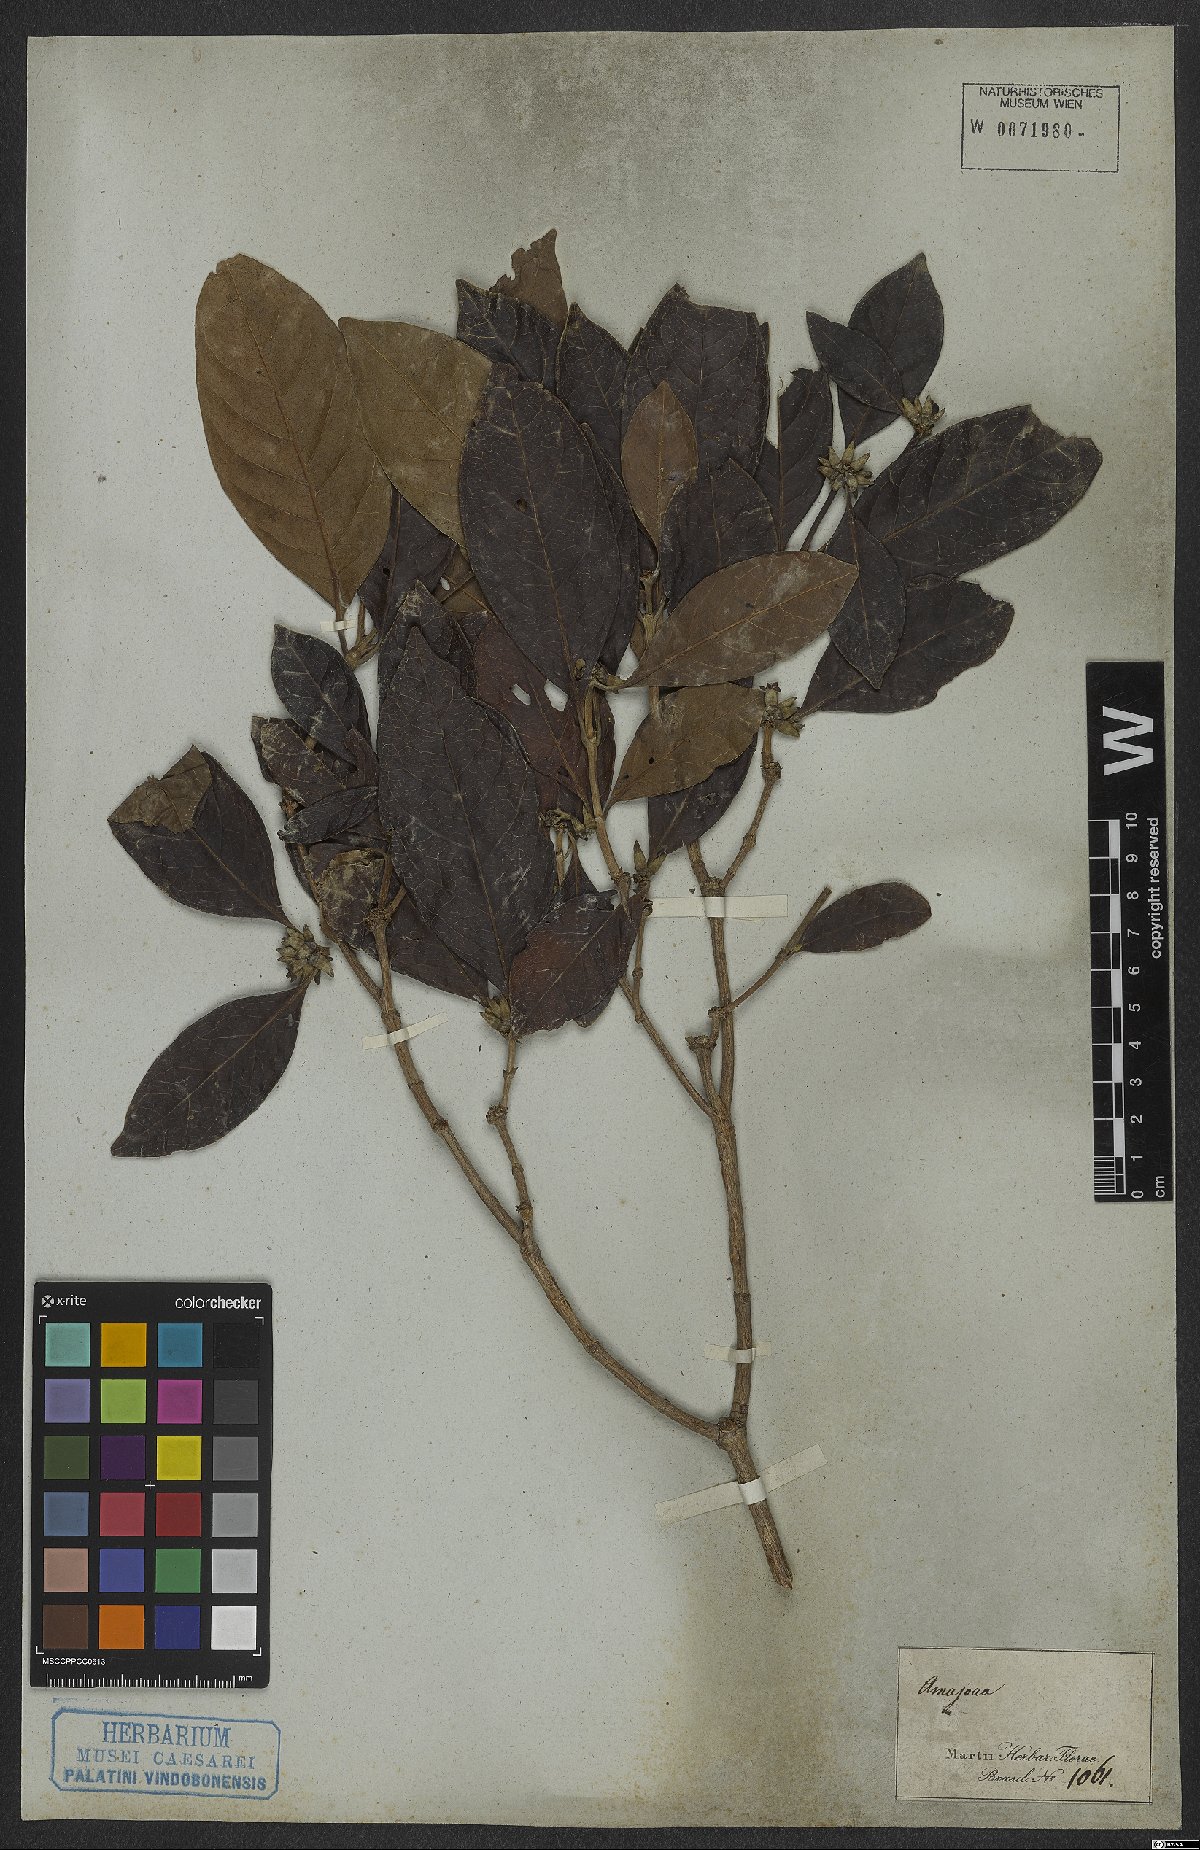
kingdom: Plantae
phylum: Tracheophyta
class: Magnoliopsida
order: Gentianales
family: Rubiaceae
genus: Amaioua
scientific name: Amaioua
